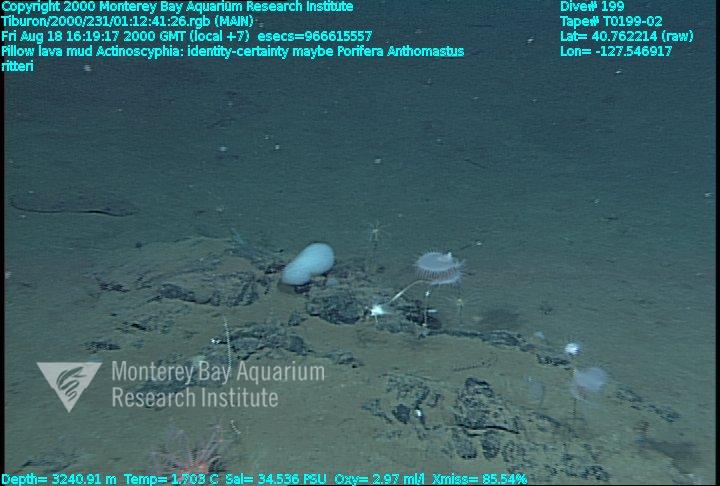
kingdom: Animalia
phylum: Porifera
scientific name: Porifera
